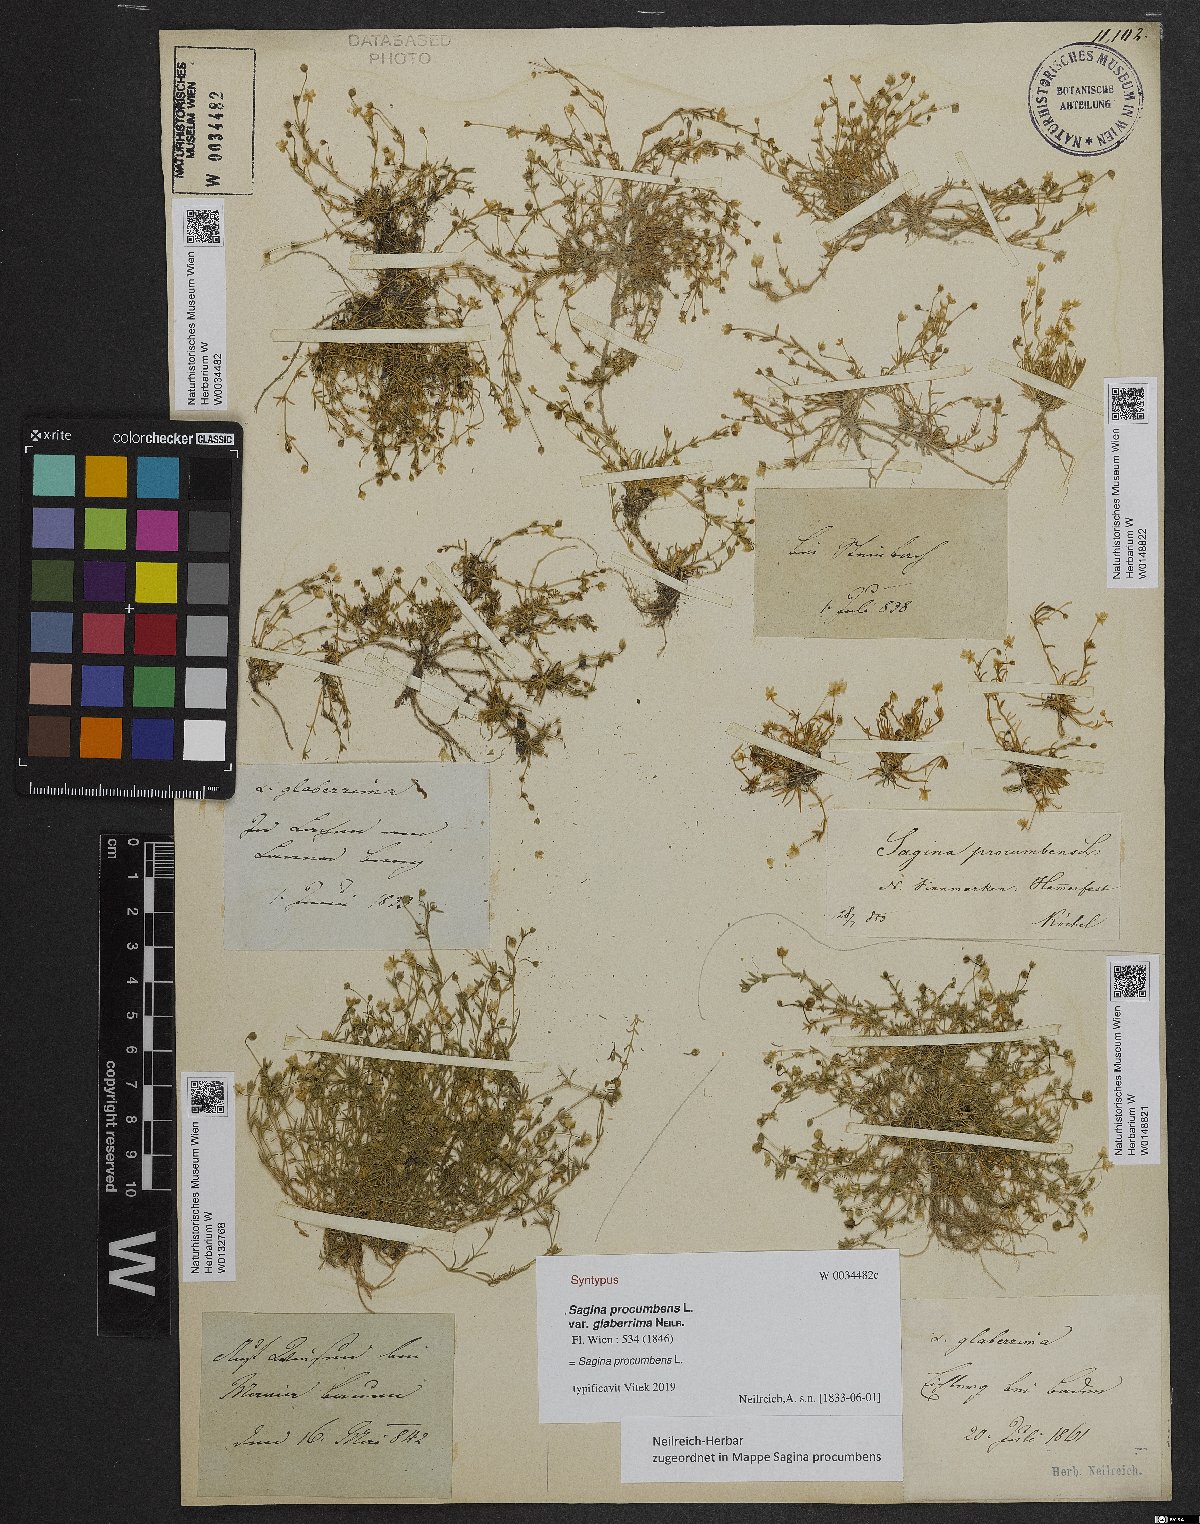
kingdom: Plantae
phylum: Tracheophyta
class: Magnoliopsida
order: Caryophyllales
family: Caryophyllaceae
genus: Sagina
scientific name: Sagina procumbens
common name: Procumbent pearlwort
